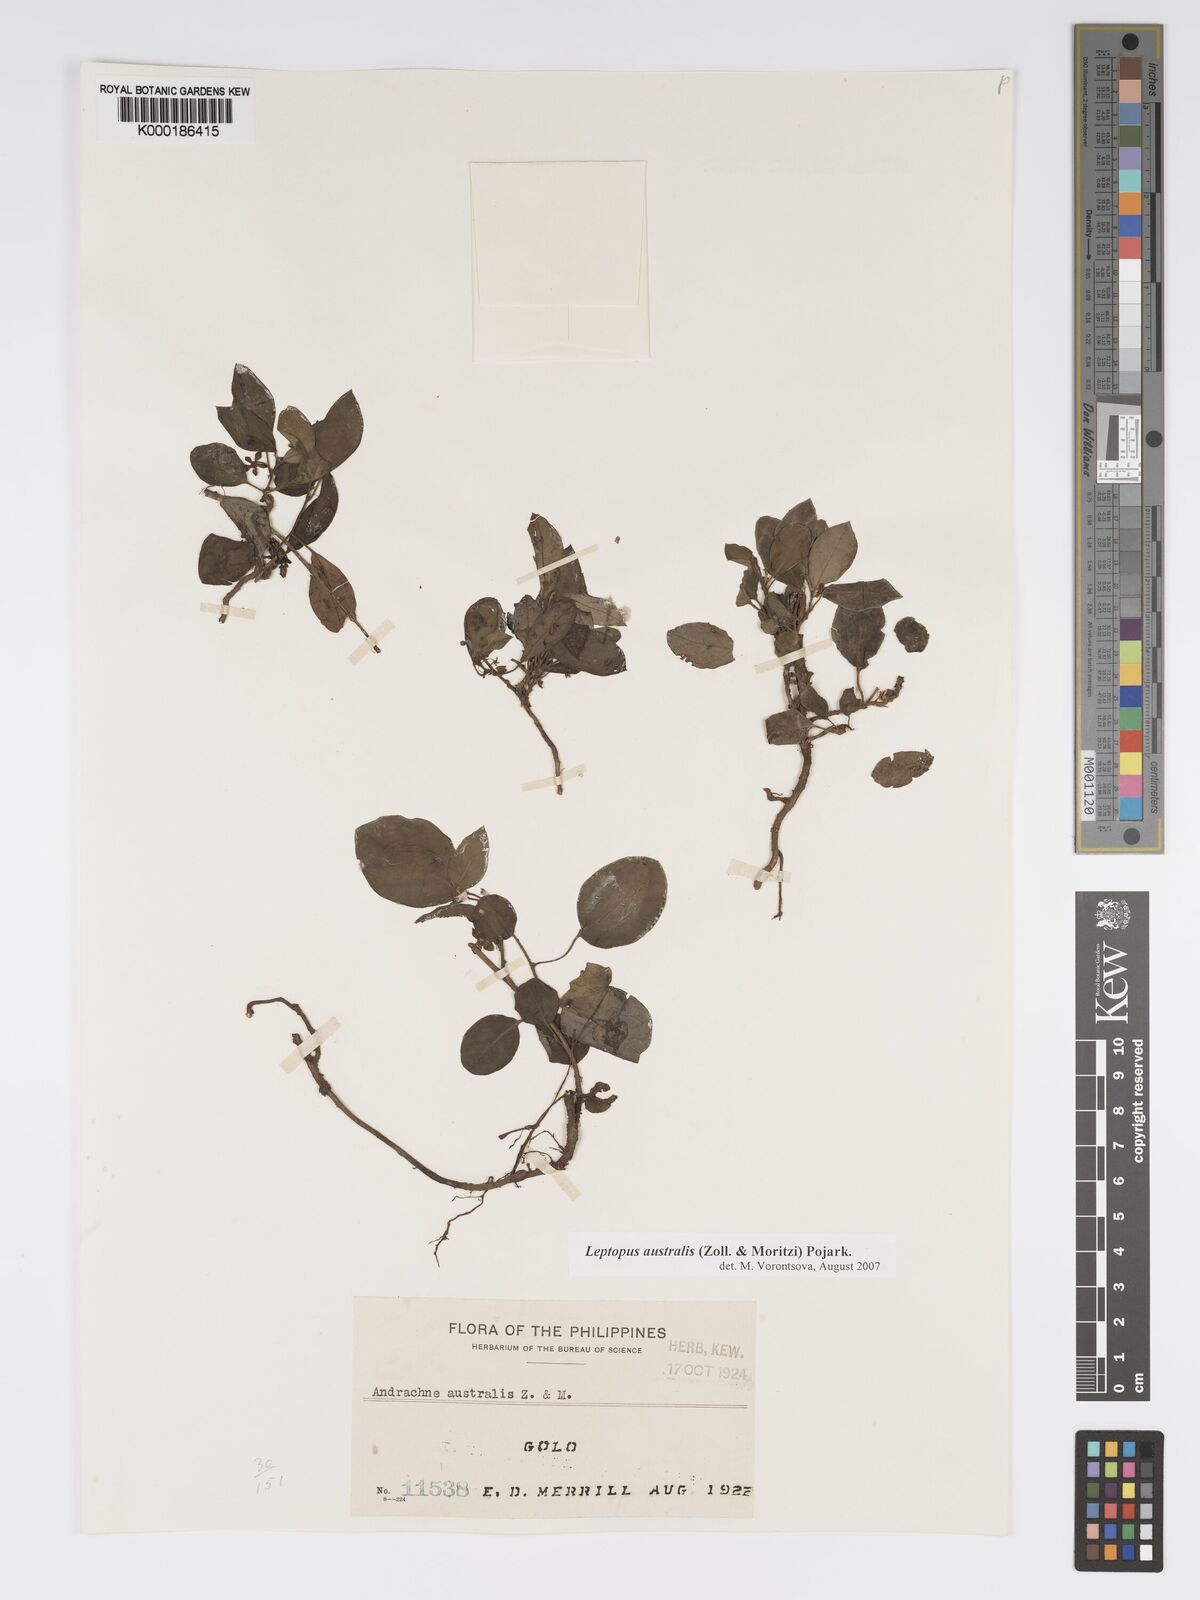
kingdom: Plantae
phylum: Tracheophyta
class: Magnoliopsida
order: Malpighiales
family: Phyllanthaceae
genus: Leptopus
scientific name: Leptopus australis
